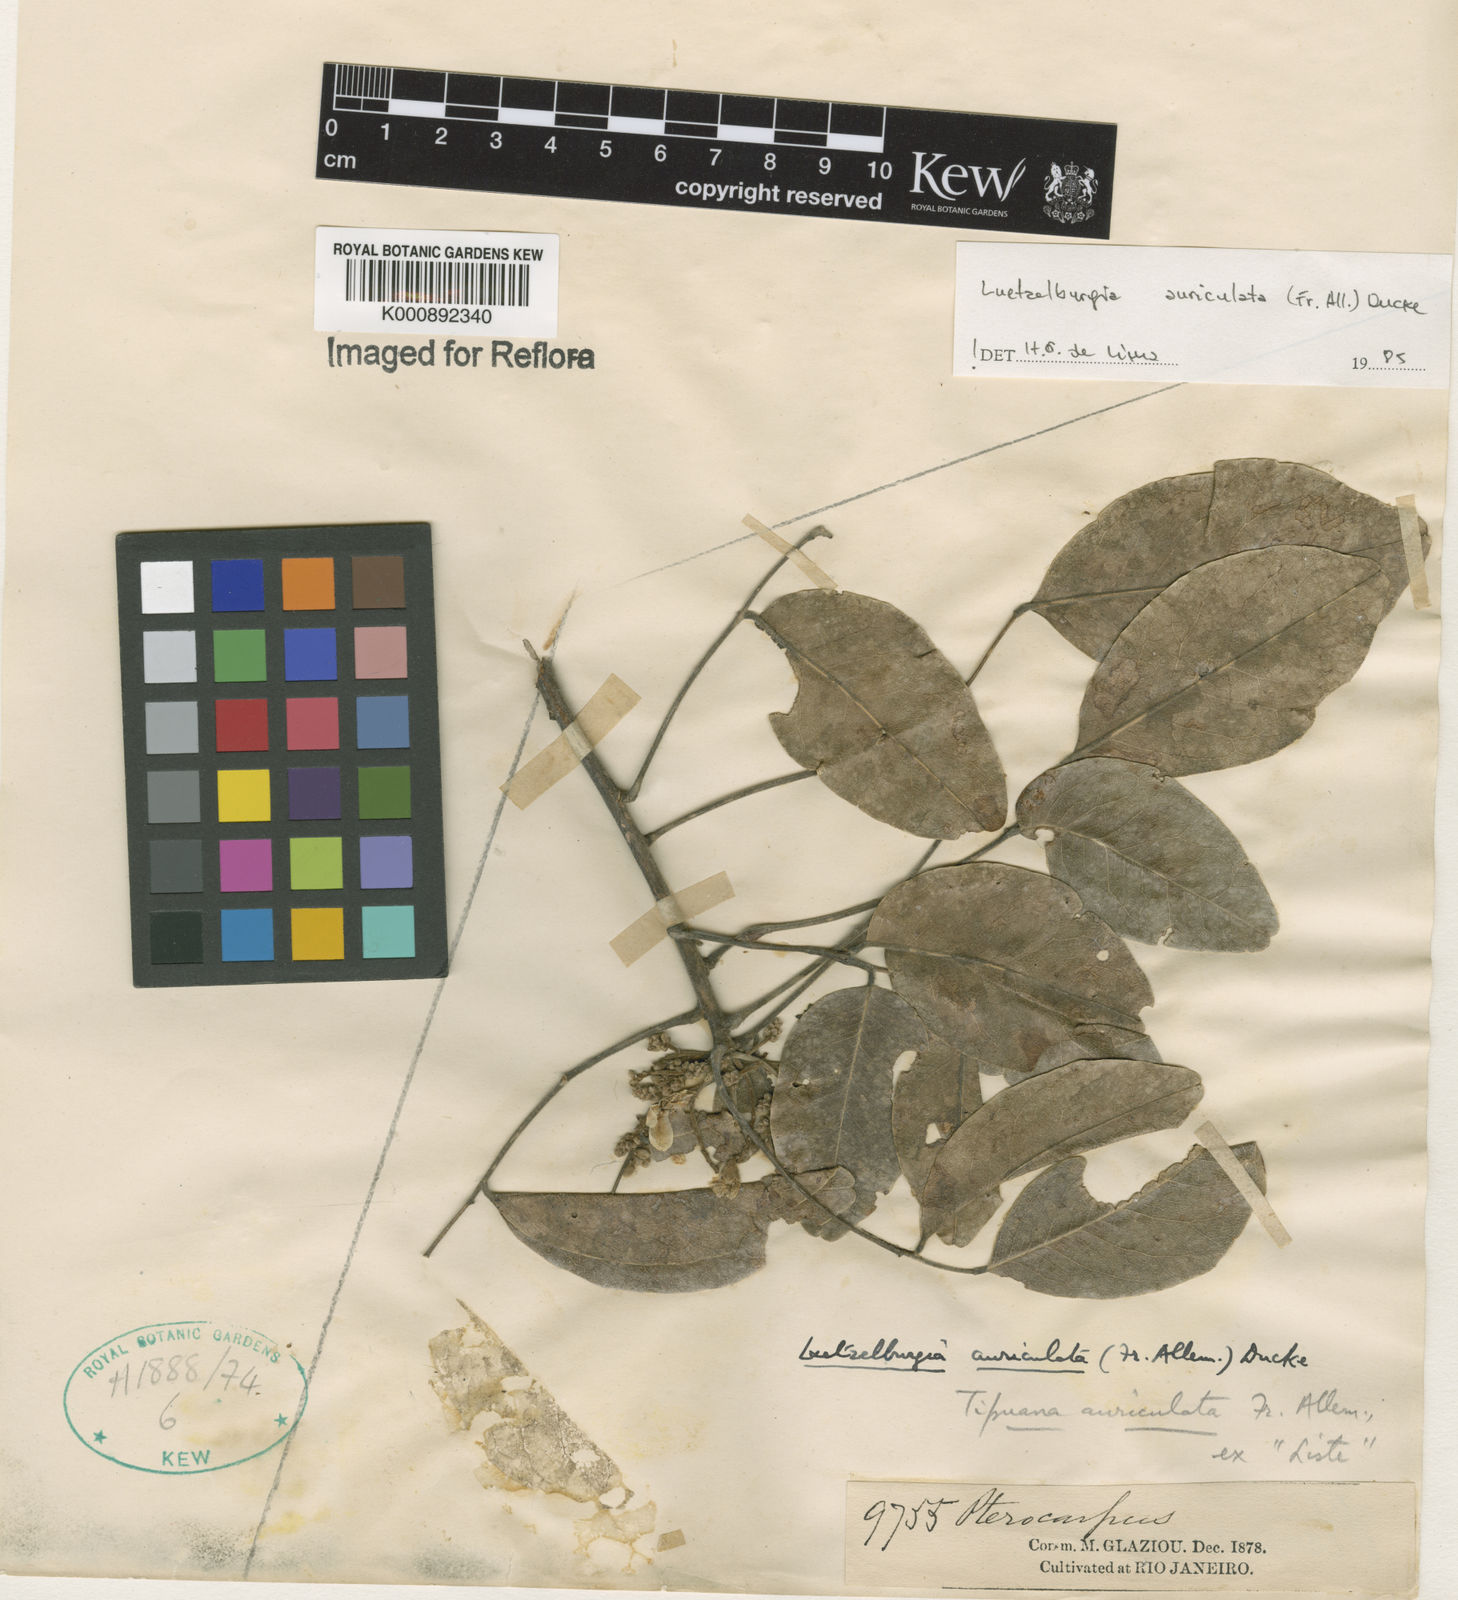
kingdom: Plantae
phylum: Tracheophyta
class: Magnoliopsida
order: Fabales
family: Fabaceae
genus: Luetzelburgia
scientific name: Luetzelburgia
